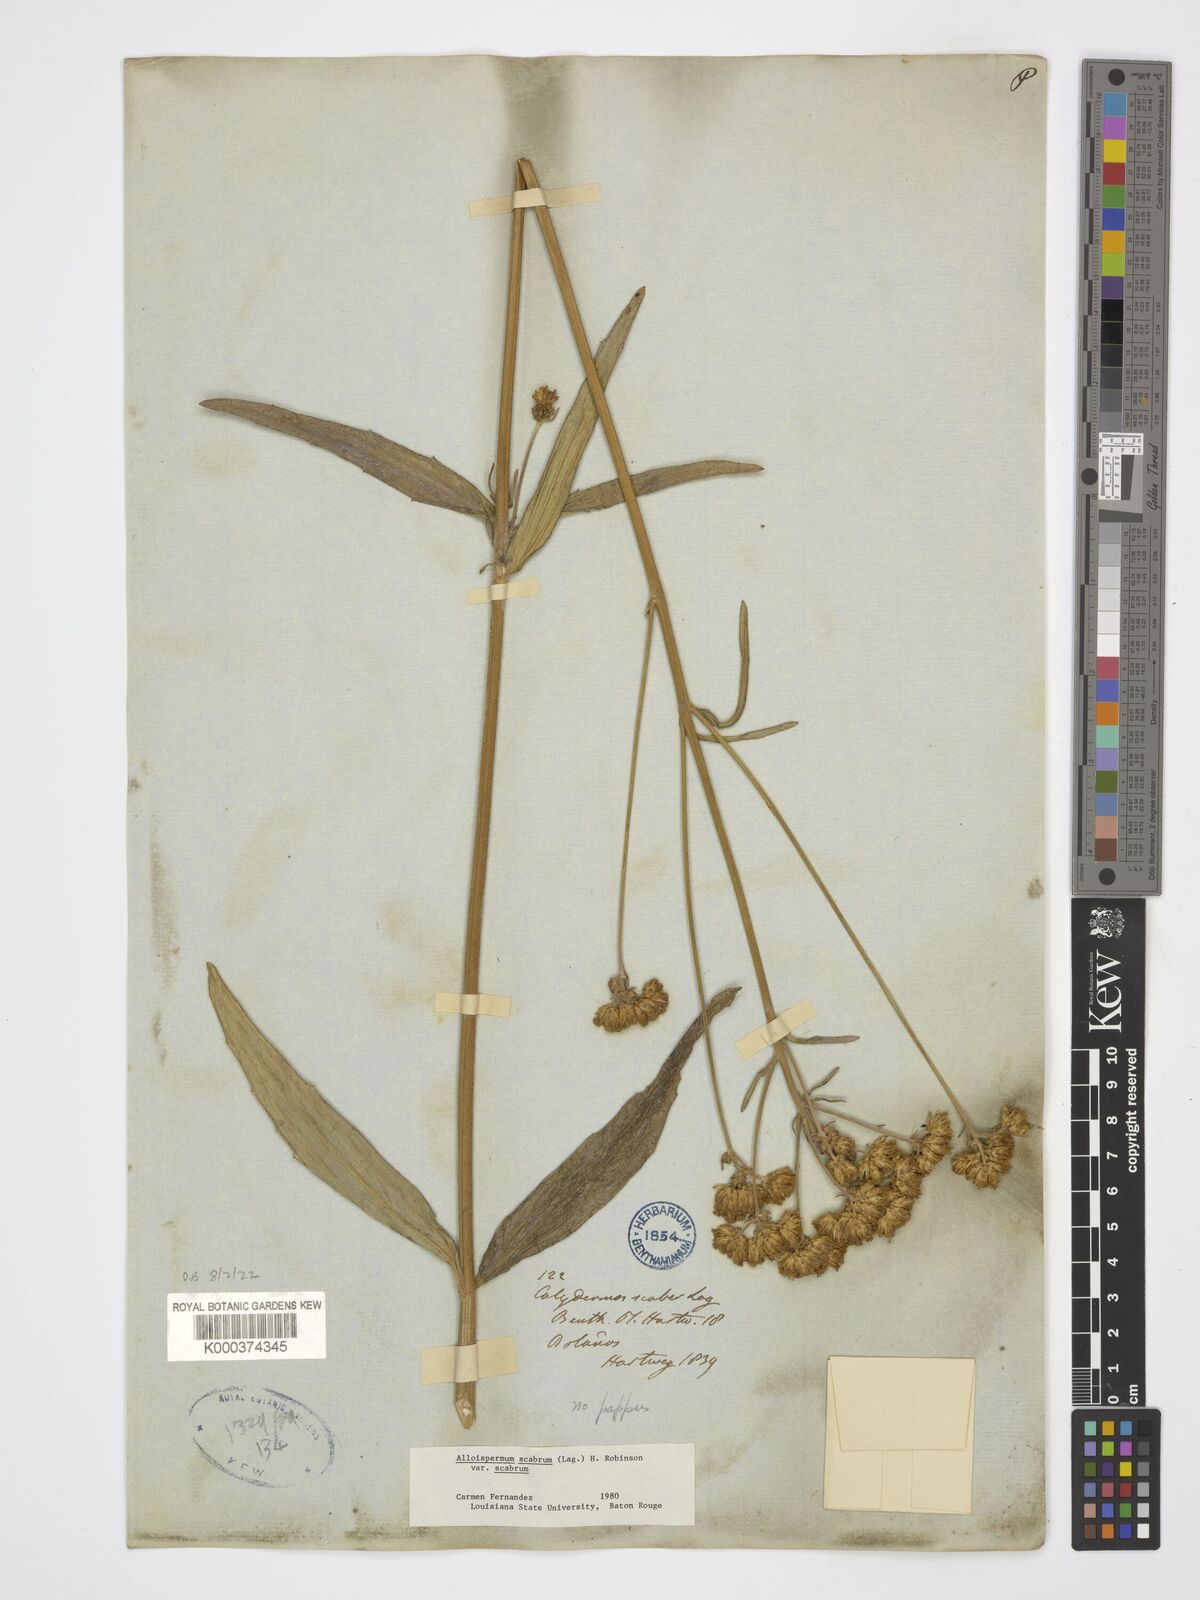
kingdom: Plantae
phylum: Tracheophyta
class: Magnoliopsida
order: Asterales
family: Asteraceae
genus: Alloispermum
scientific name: Alloispermum scabrum
